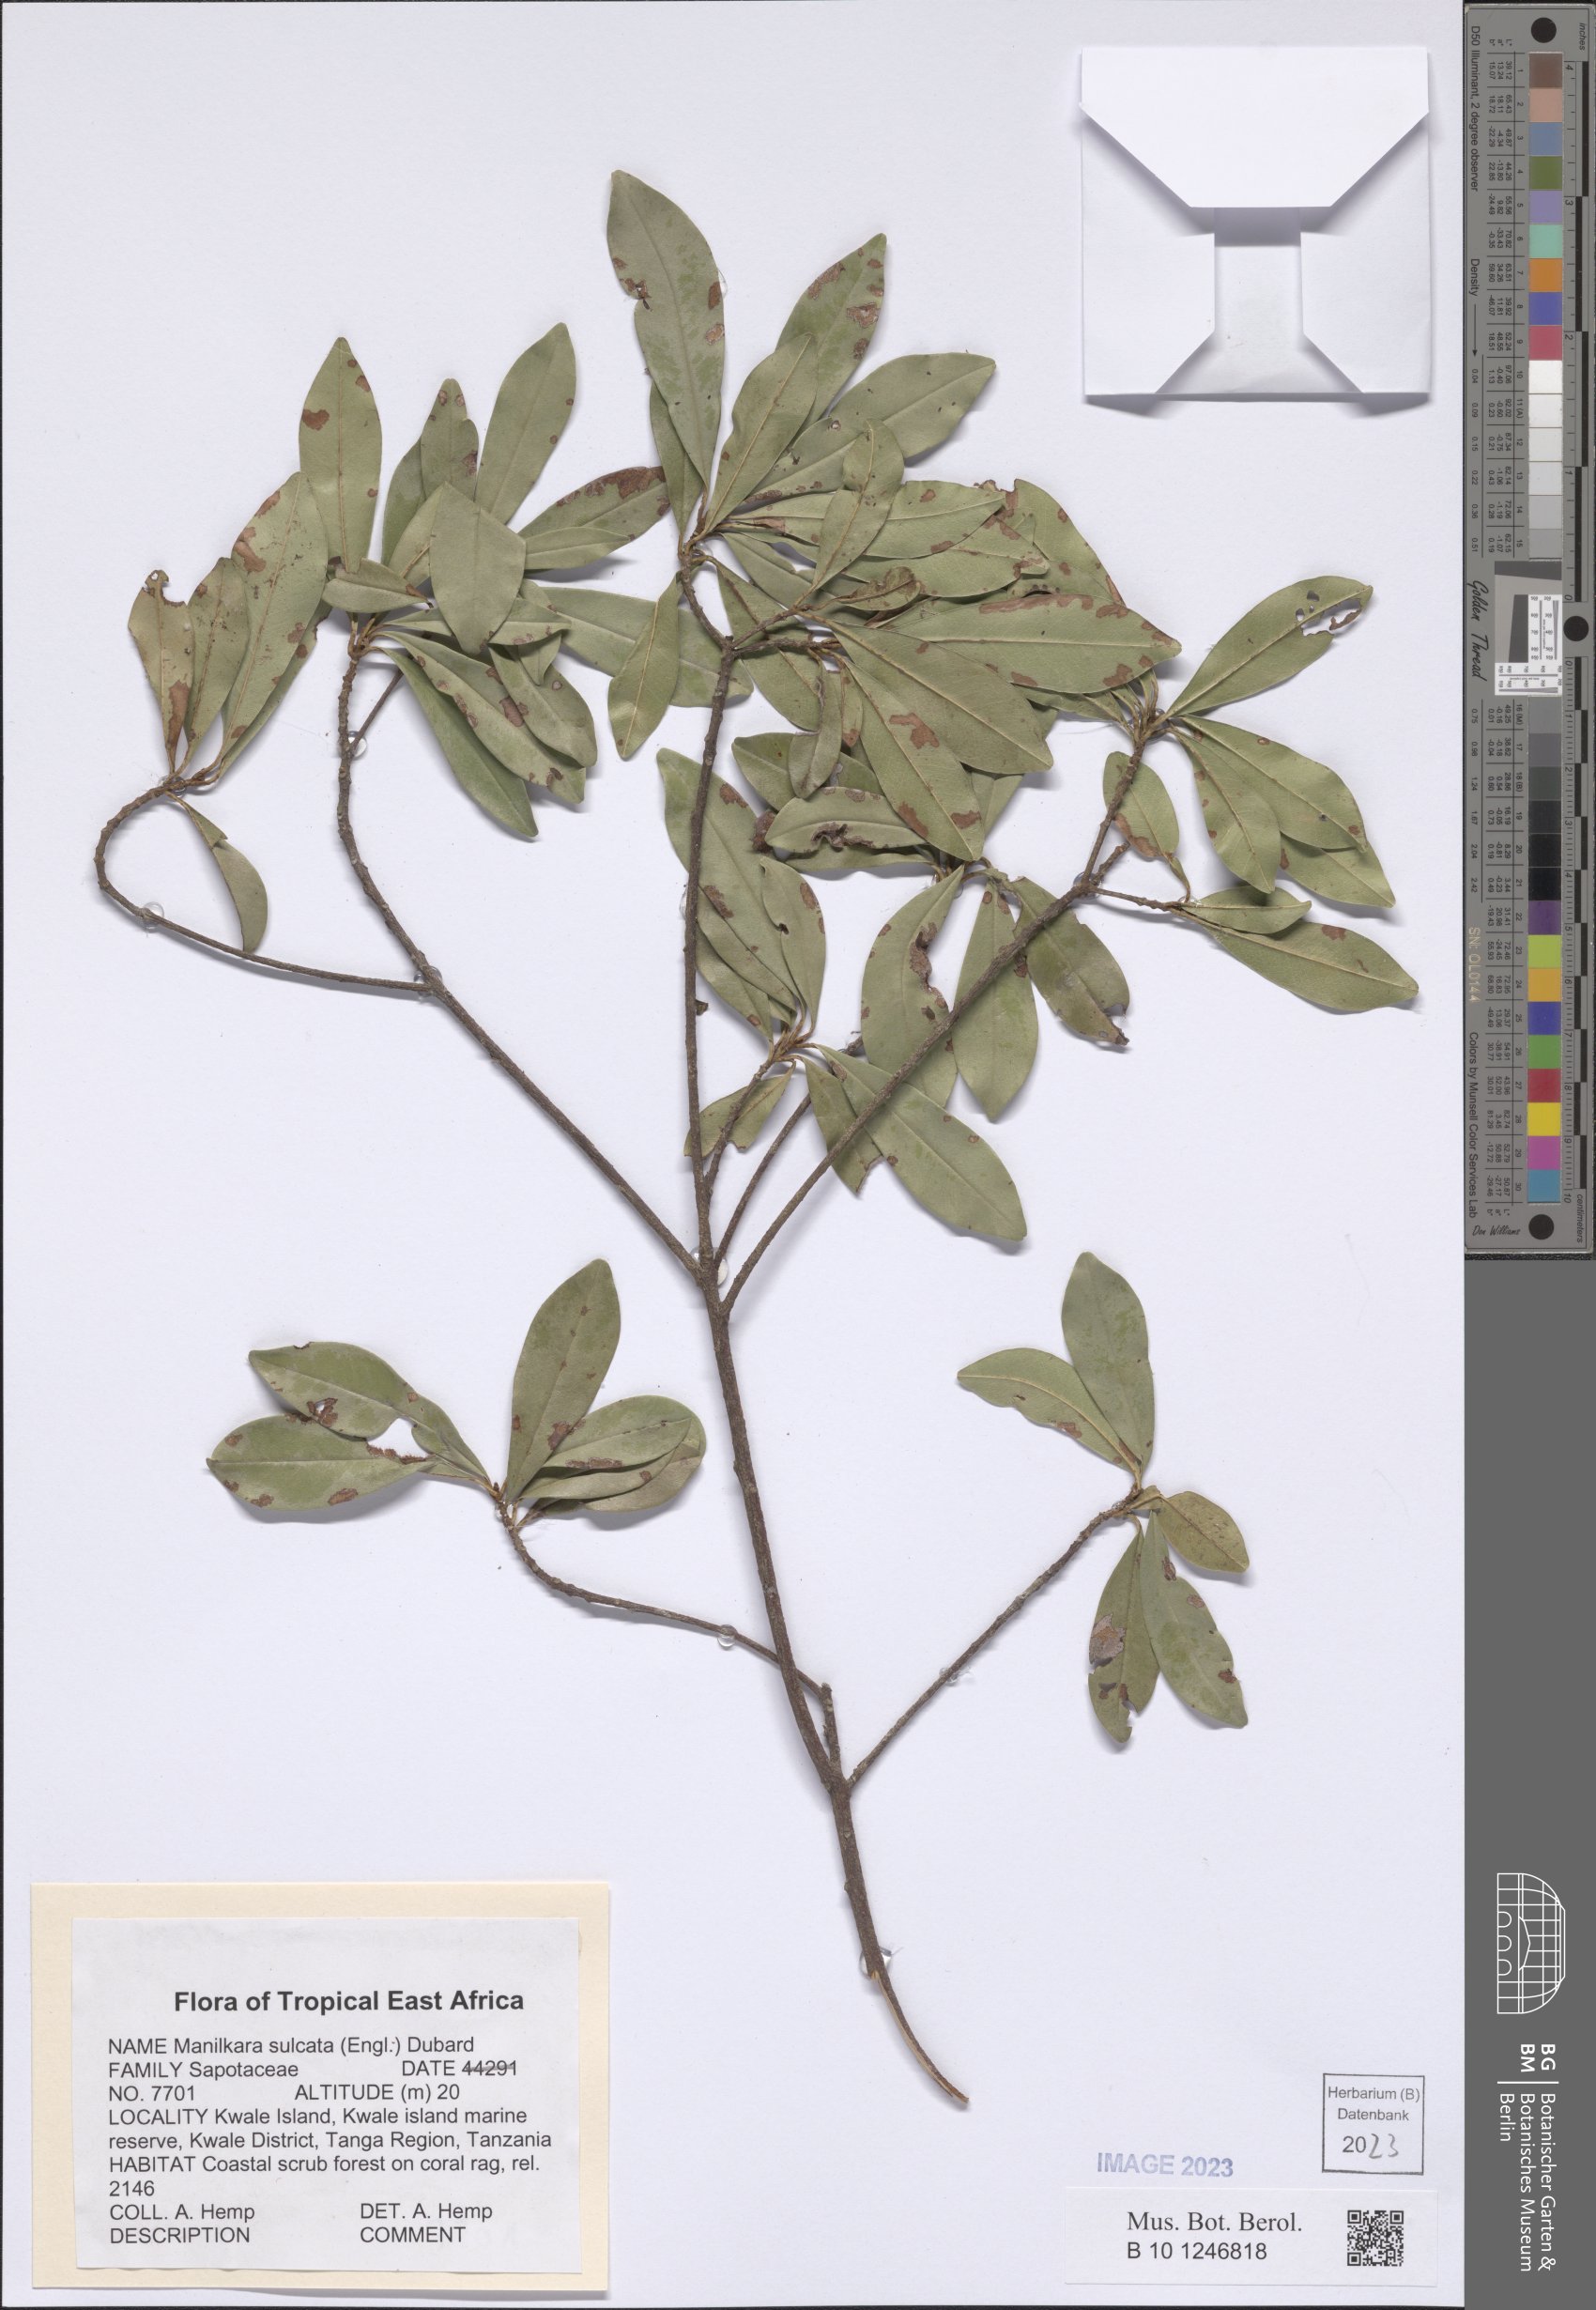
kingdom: Plantae
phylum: Tracheophyta
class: Magnoliopsida
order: Ericales
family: Sapotaceae
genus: Manilkara
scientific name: Manilkara sulcata
